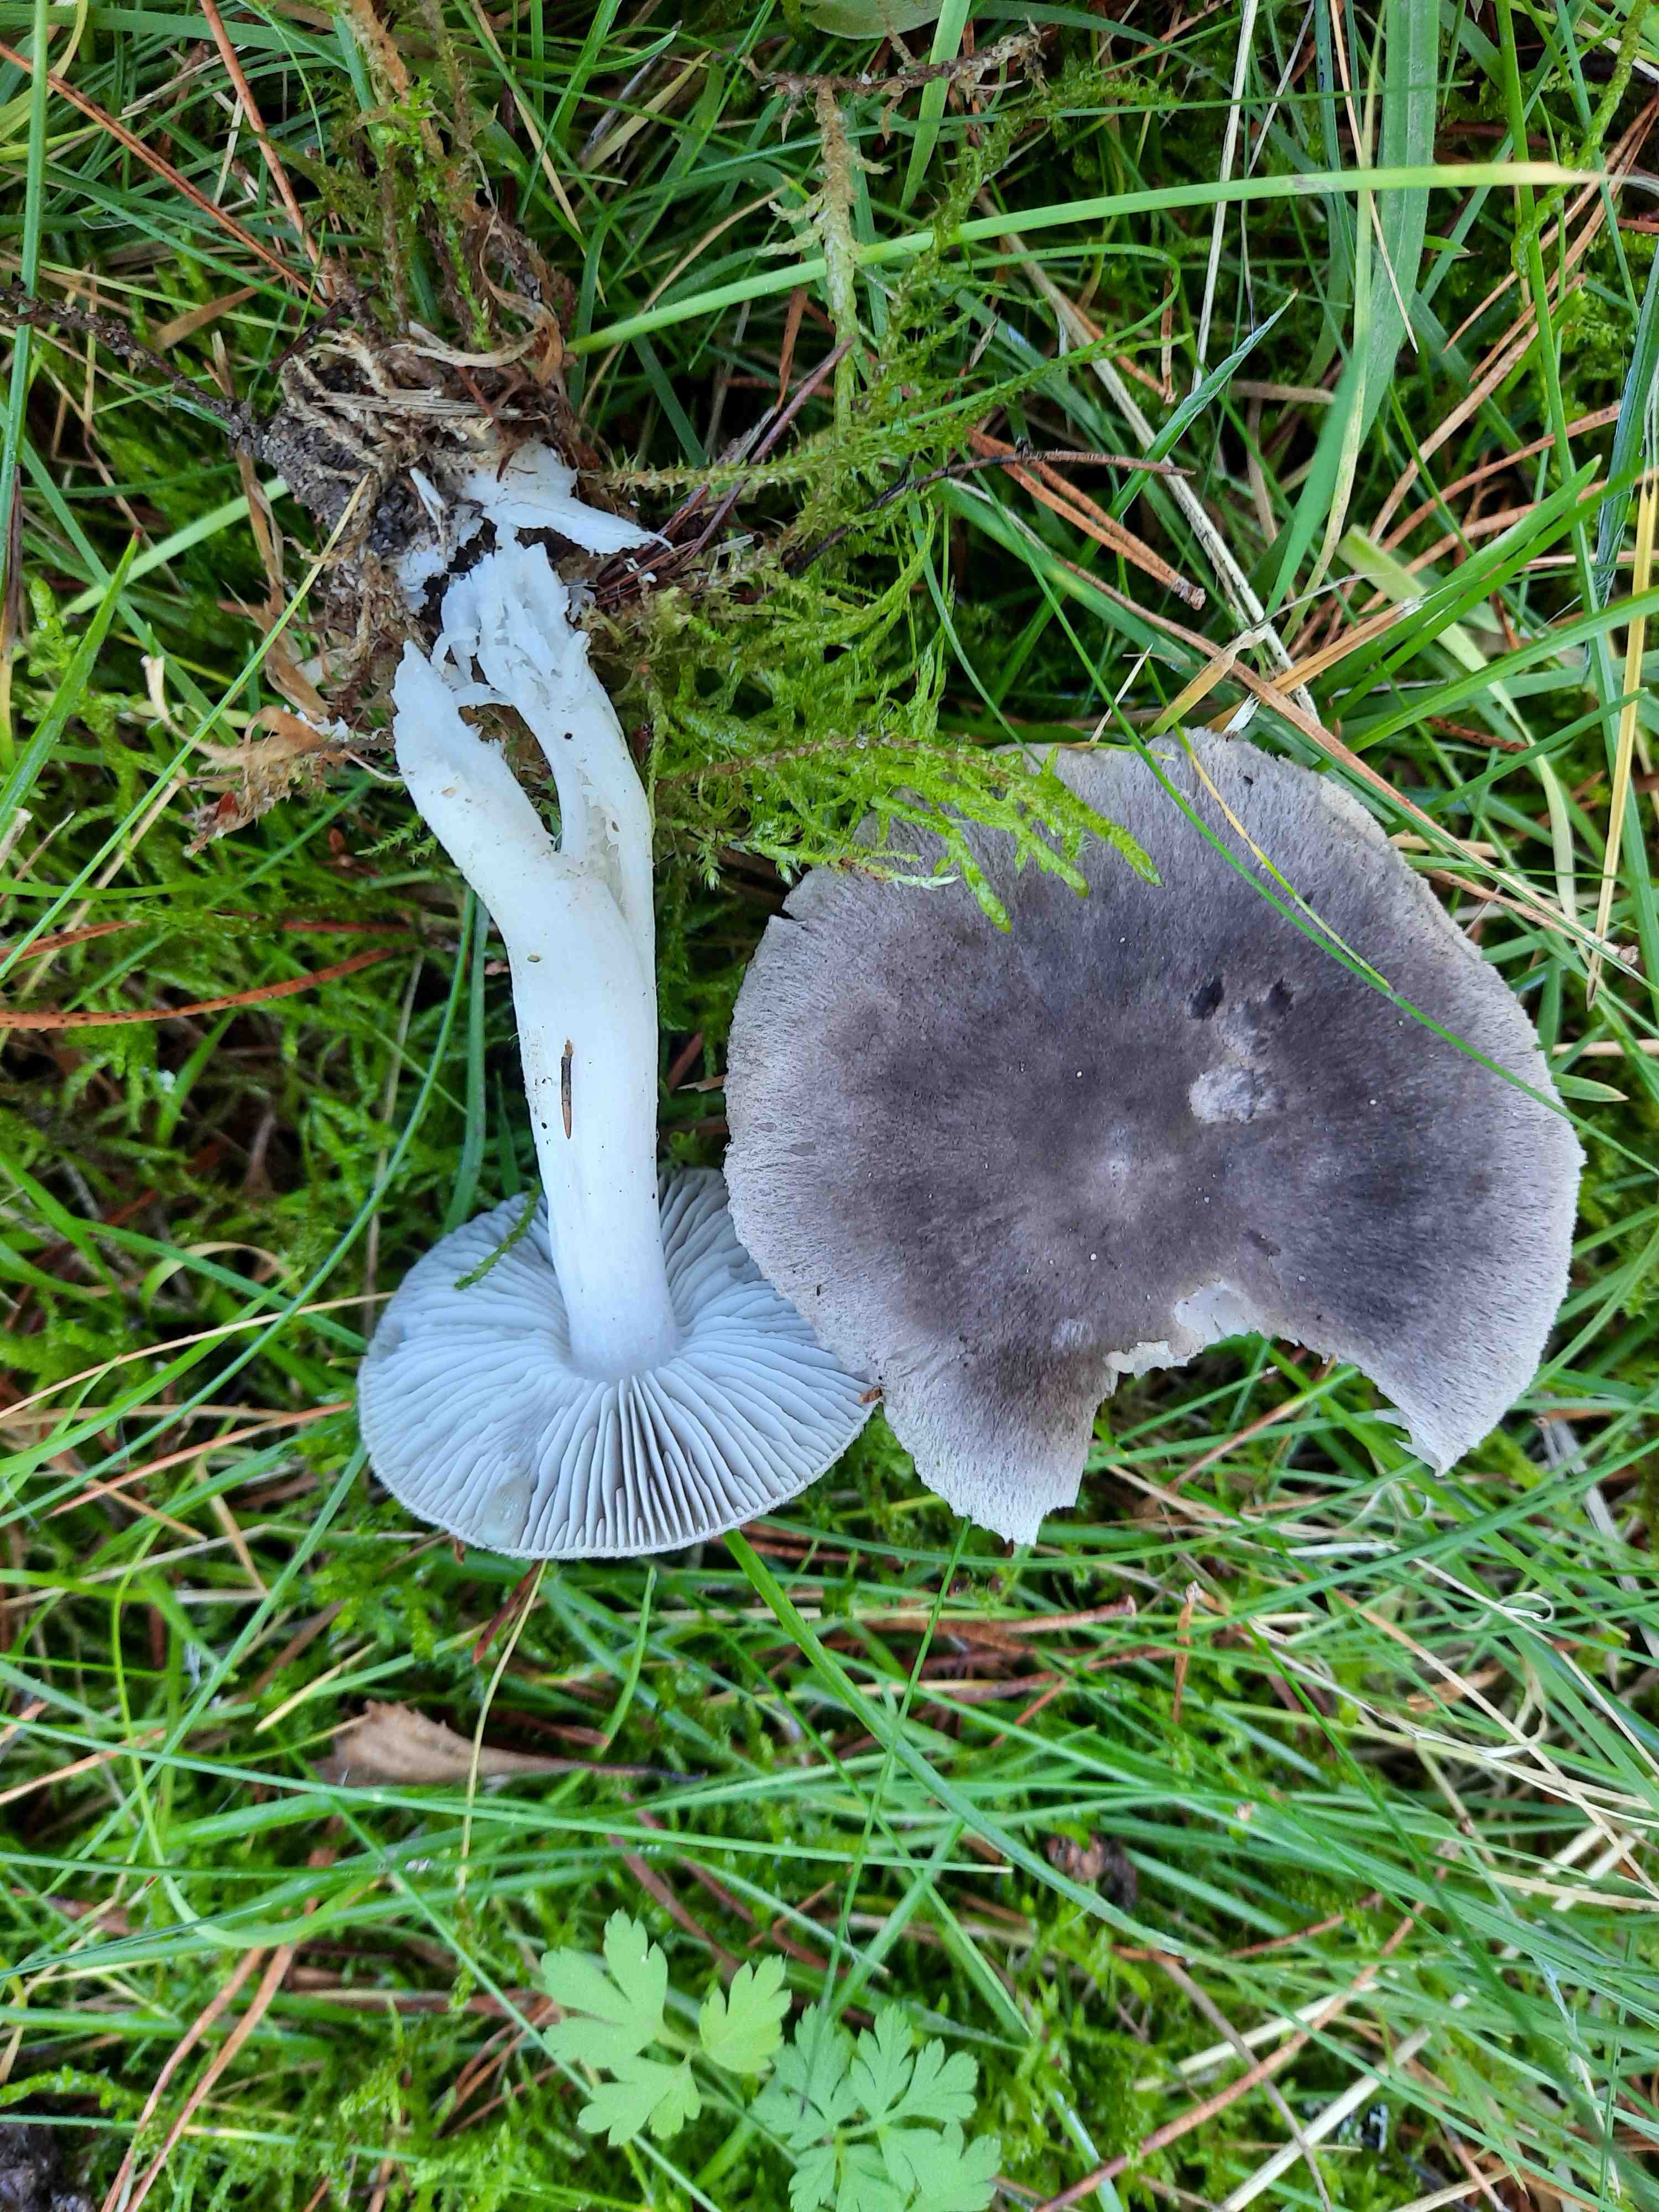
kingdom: Fungi
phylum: Basidiomycota
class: Agaricomycetes
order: Agaricales
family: Tricholomataceae
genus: Tricholoma
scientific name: Tricholoma terreum
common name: jordfarvet ridderhat
